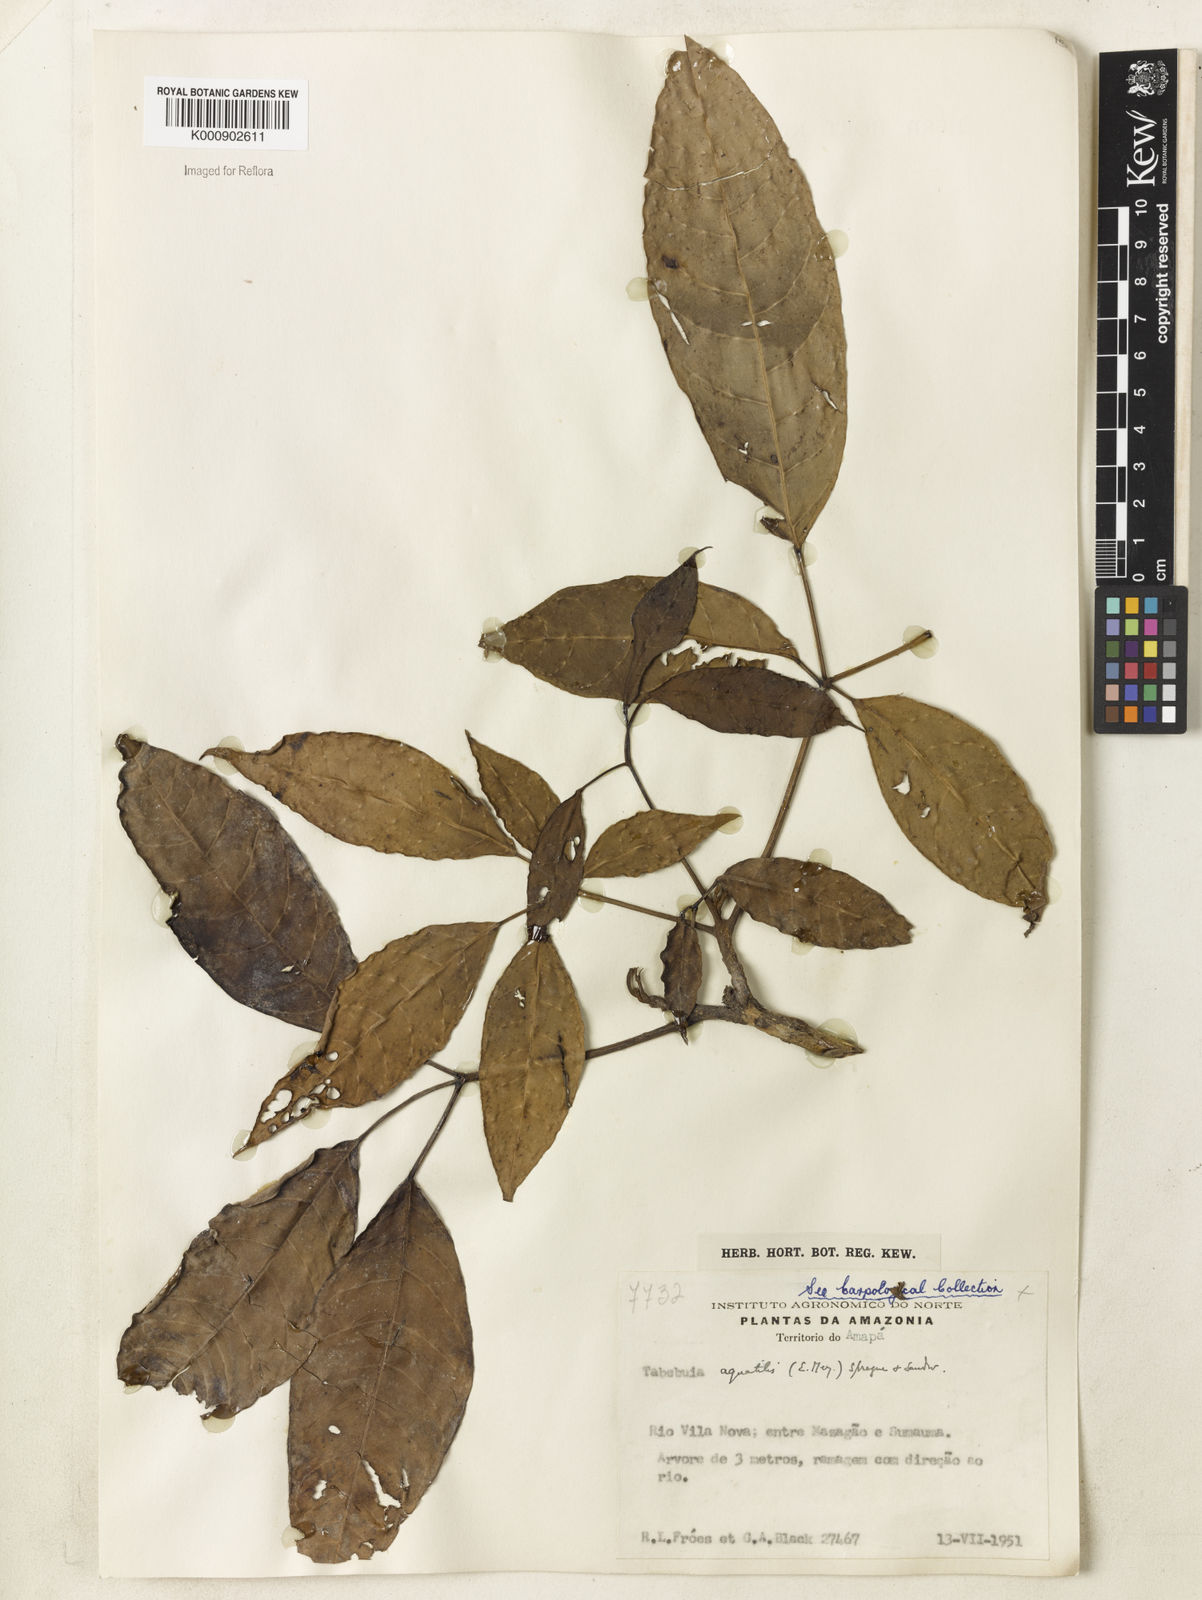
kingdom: Plantae
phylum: Tracheophyta
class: Magnoliopsida
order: Lamiales
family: Bignoniaceae
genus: Tabebuia
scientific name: Tabebuia fluviatilis
